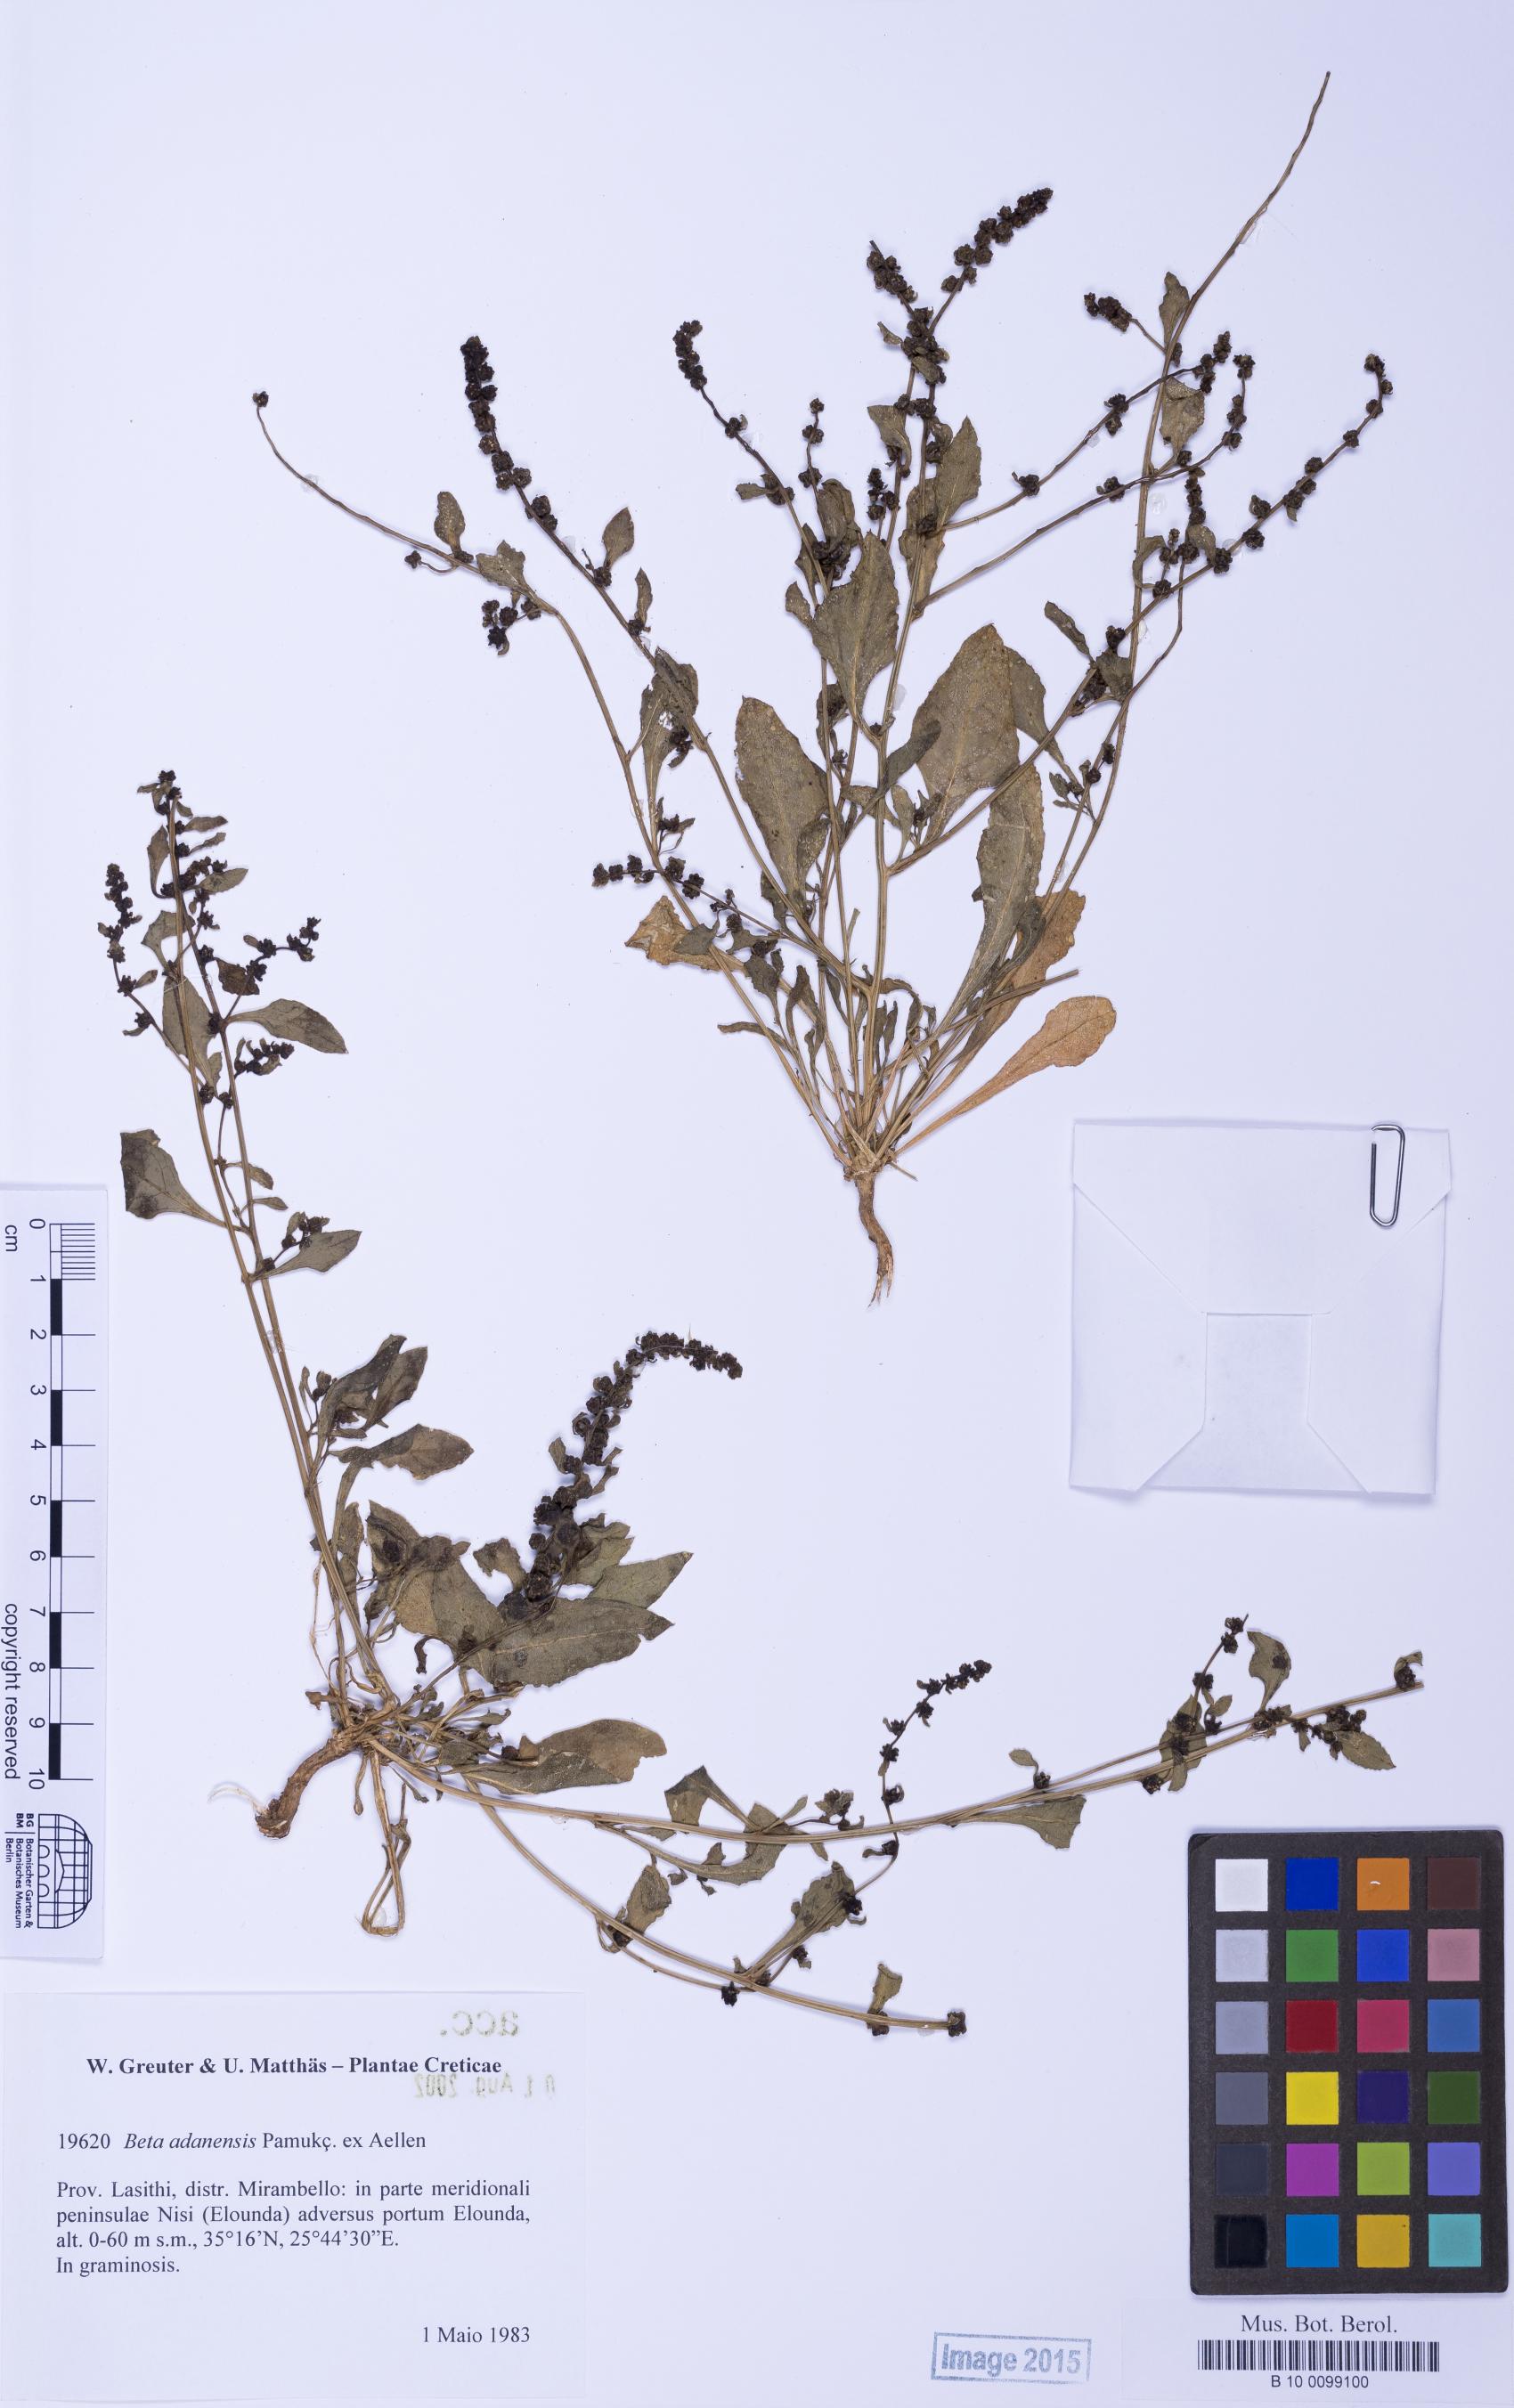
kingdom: Plantae
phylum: Tracheophyta
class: Magnoliopsida
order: Caryophyllales
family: Amaranthaceae
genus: Beta
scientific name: Beta adanensis
